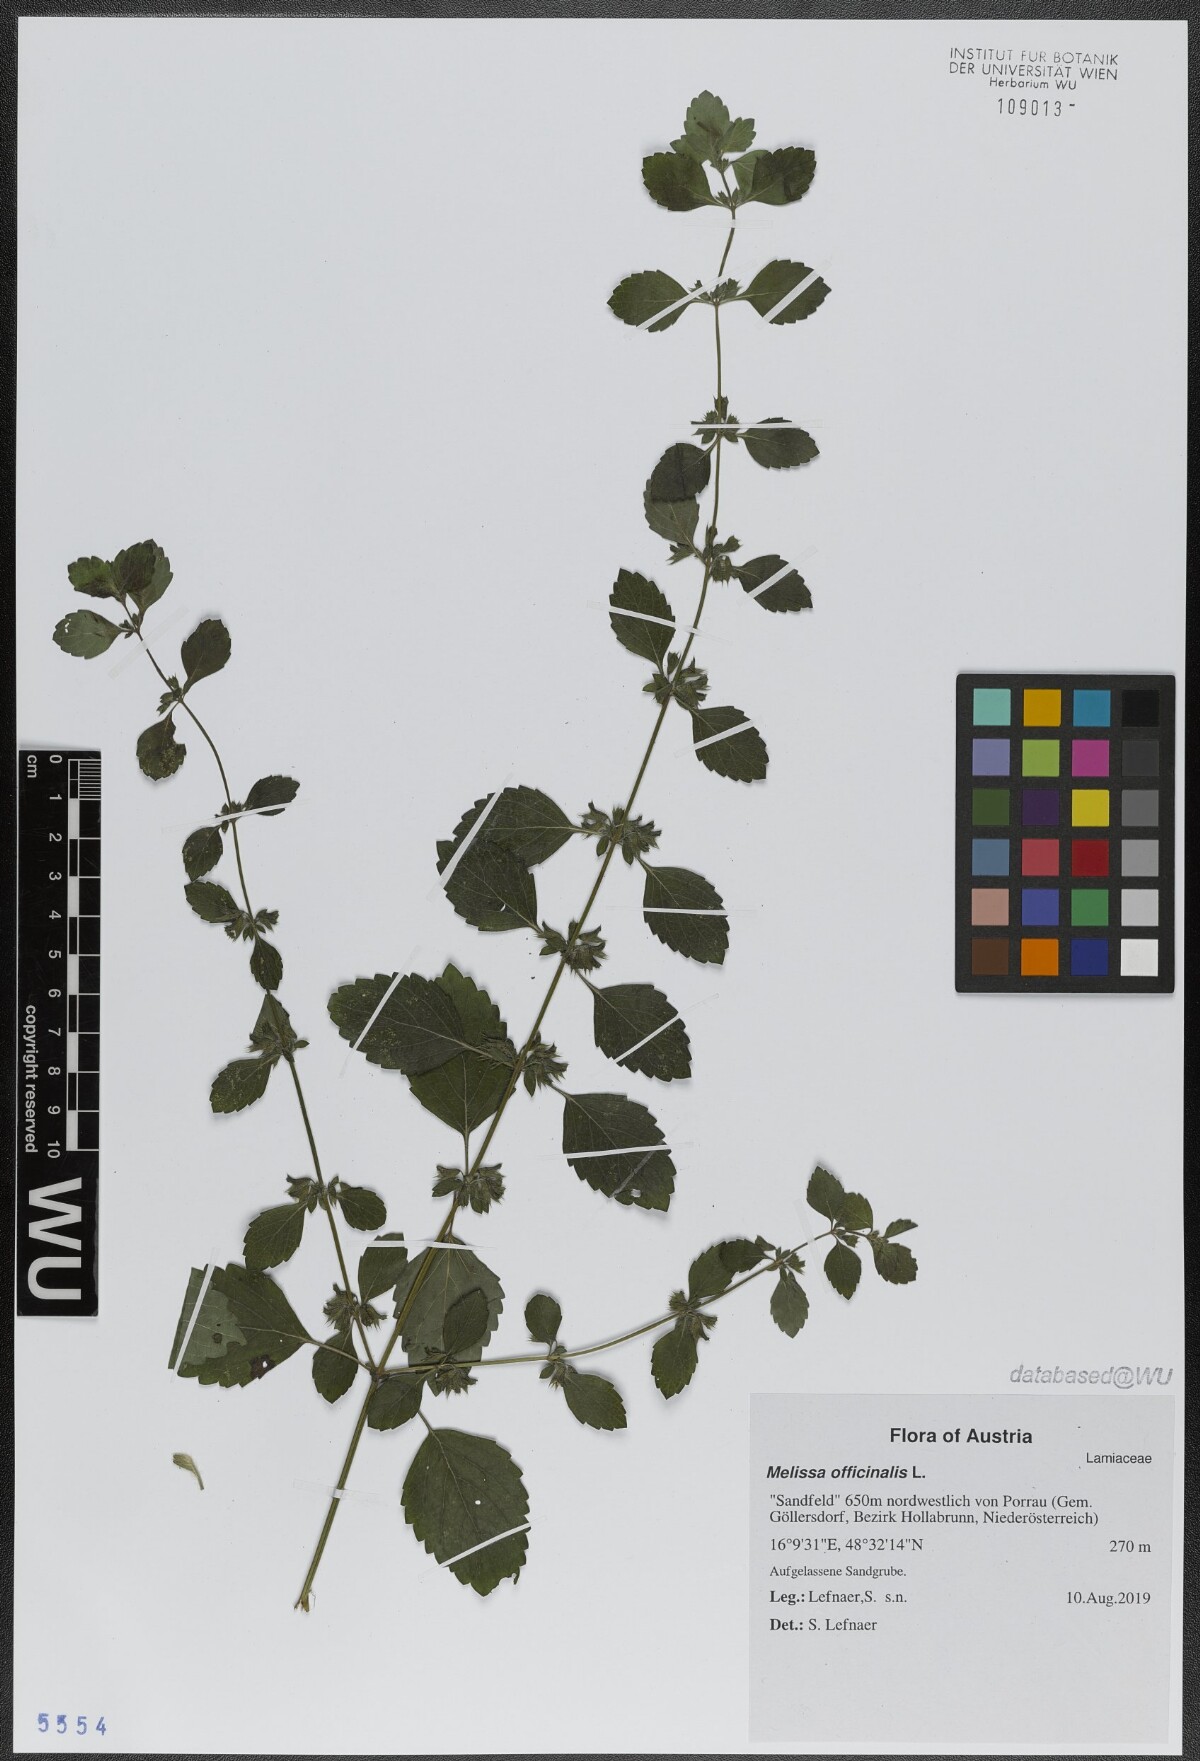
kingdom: Plantae
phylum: Tracheophyta
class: Magnoliopsida
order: Lamiales
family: Lamiaceae
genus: Melissa
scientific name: Melissa officinalis
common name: Balm
